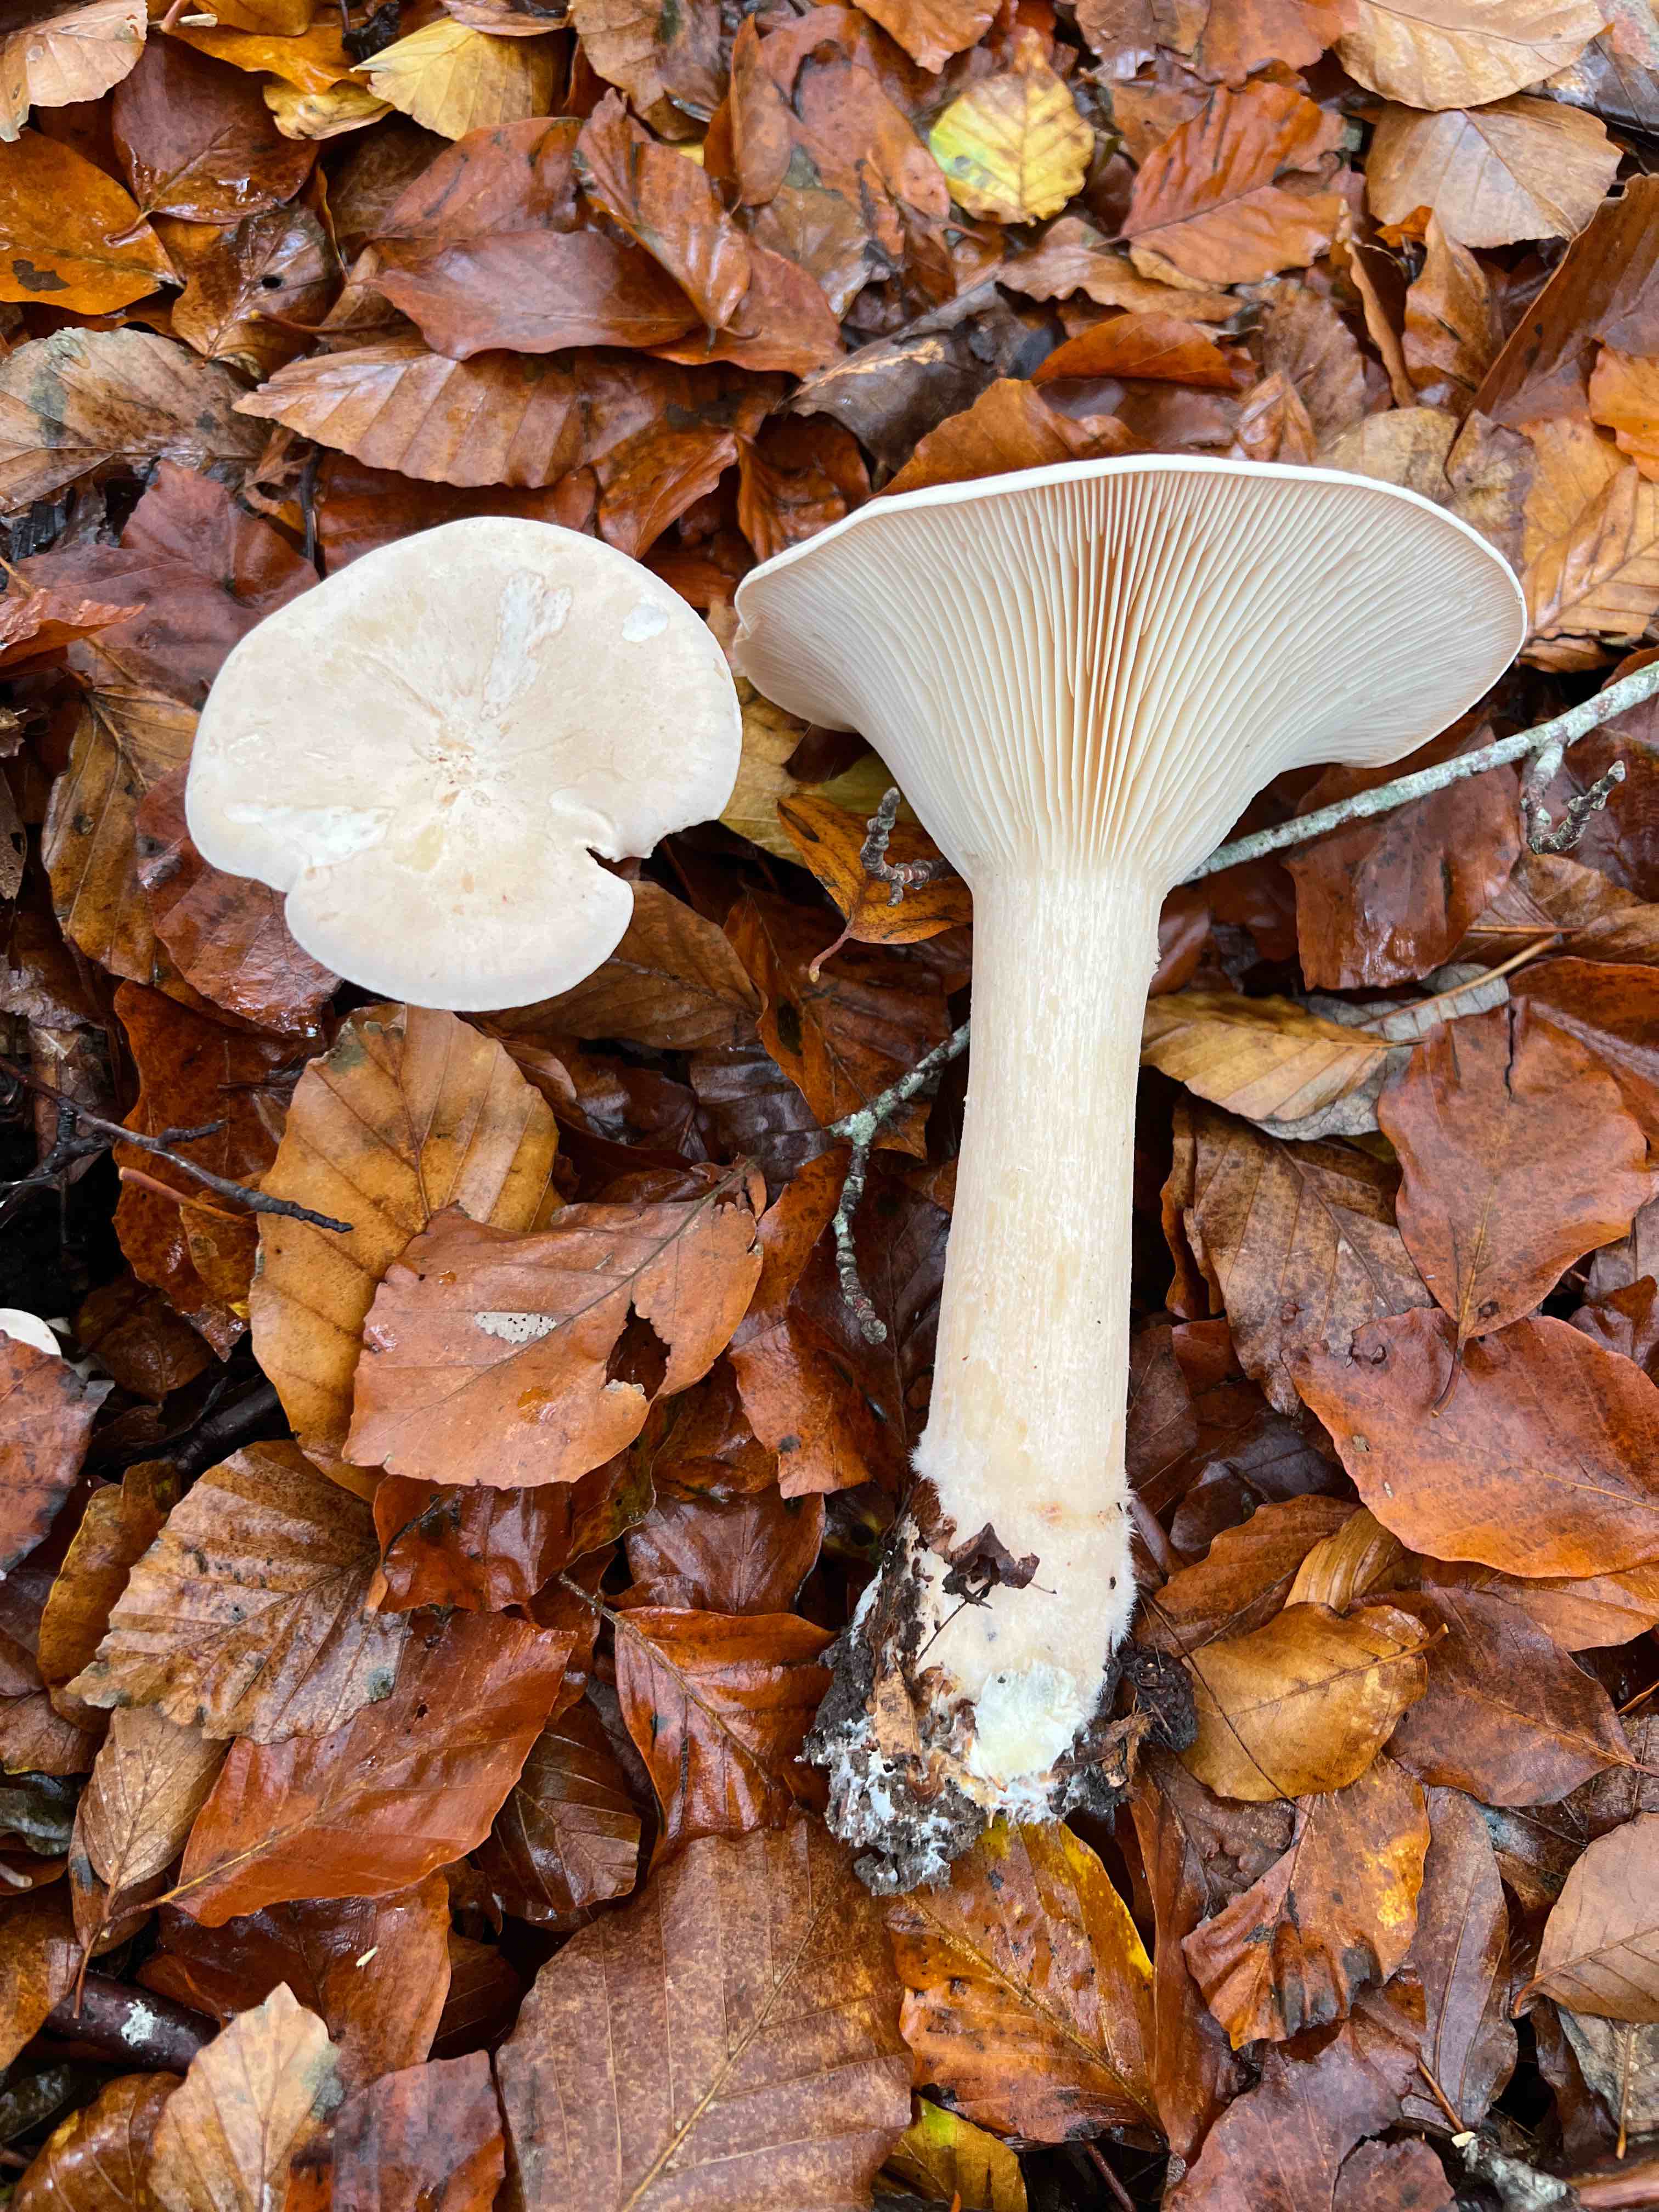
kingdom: Fungi
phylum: Basidiomycota
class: Agaricomycetes
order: Agaricales
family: Tricholomataceae
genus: Infundibulicybe
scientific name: Infundibulicybe geotropa
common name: stor tragthat
